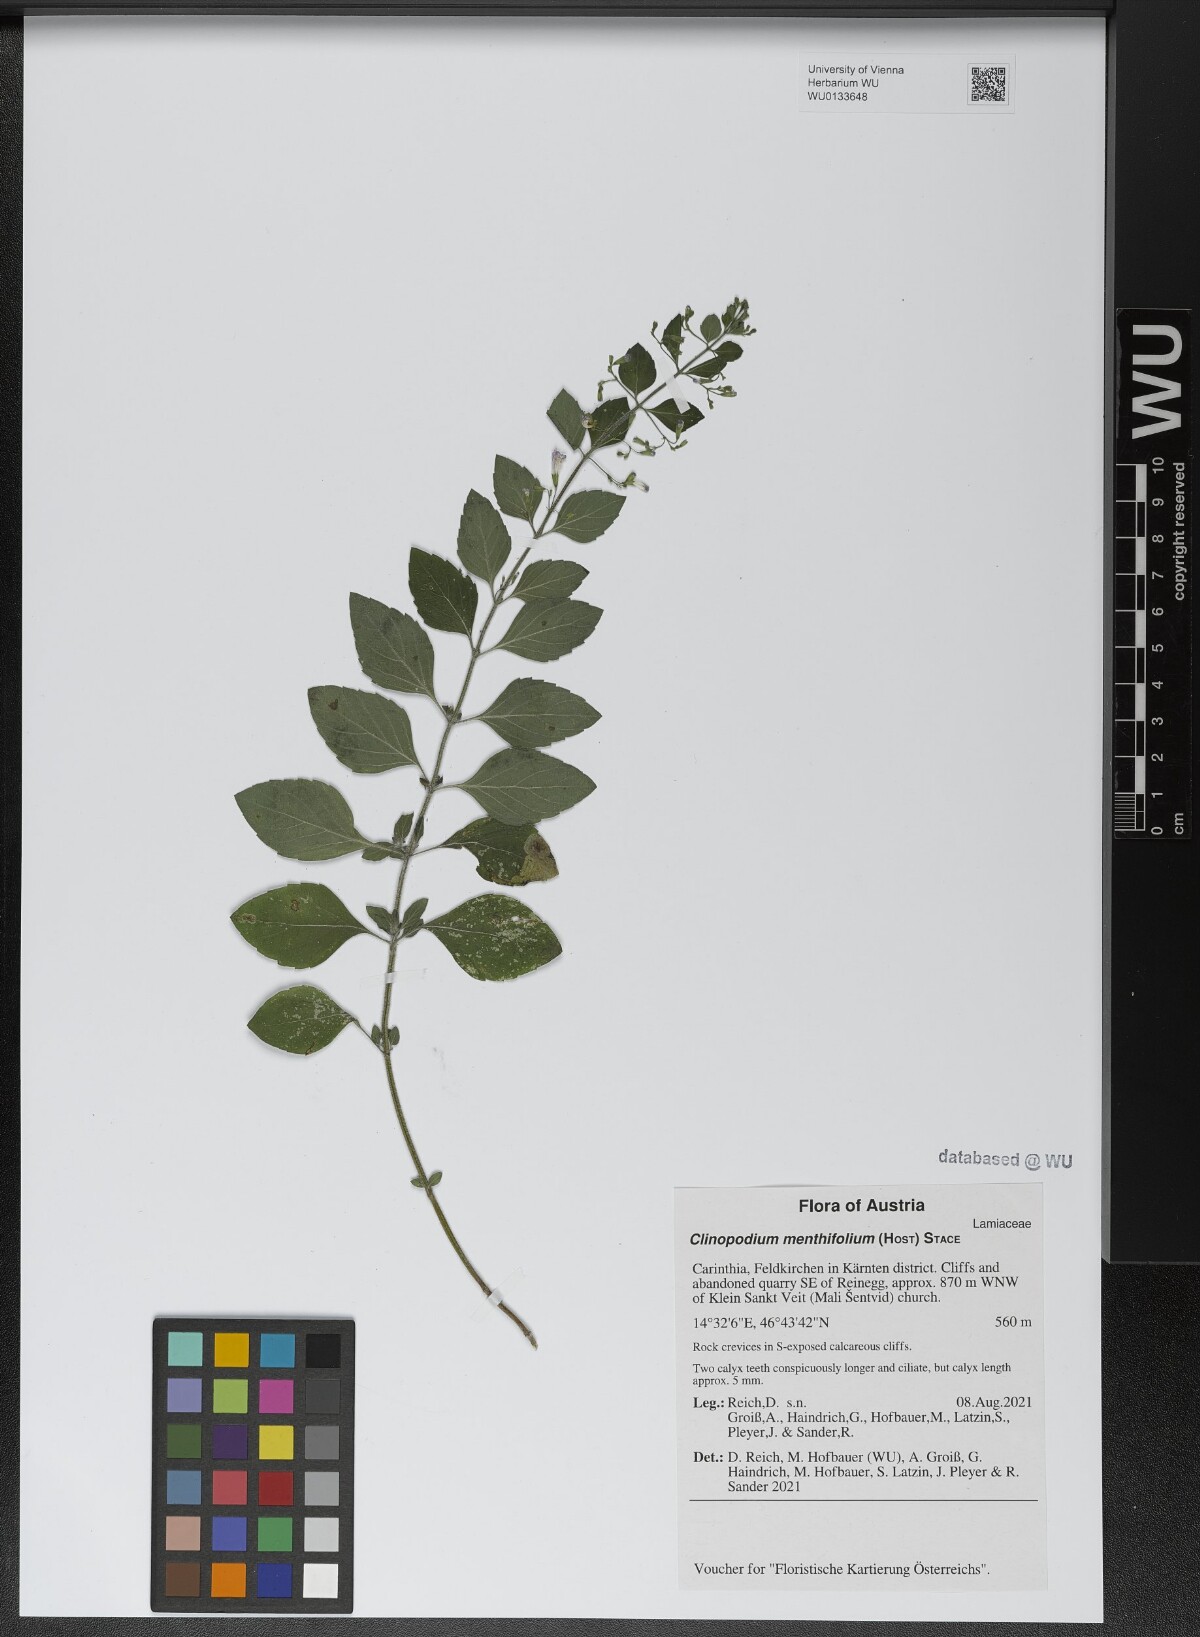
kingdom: Plantae
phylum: Tracheophyta
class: Magnoliopsida
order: Lamiales
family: Lamiaceae
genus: Clinopodium
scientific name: Clinopodium menthifolium
